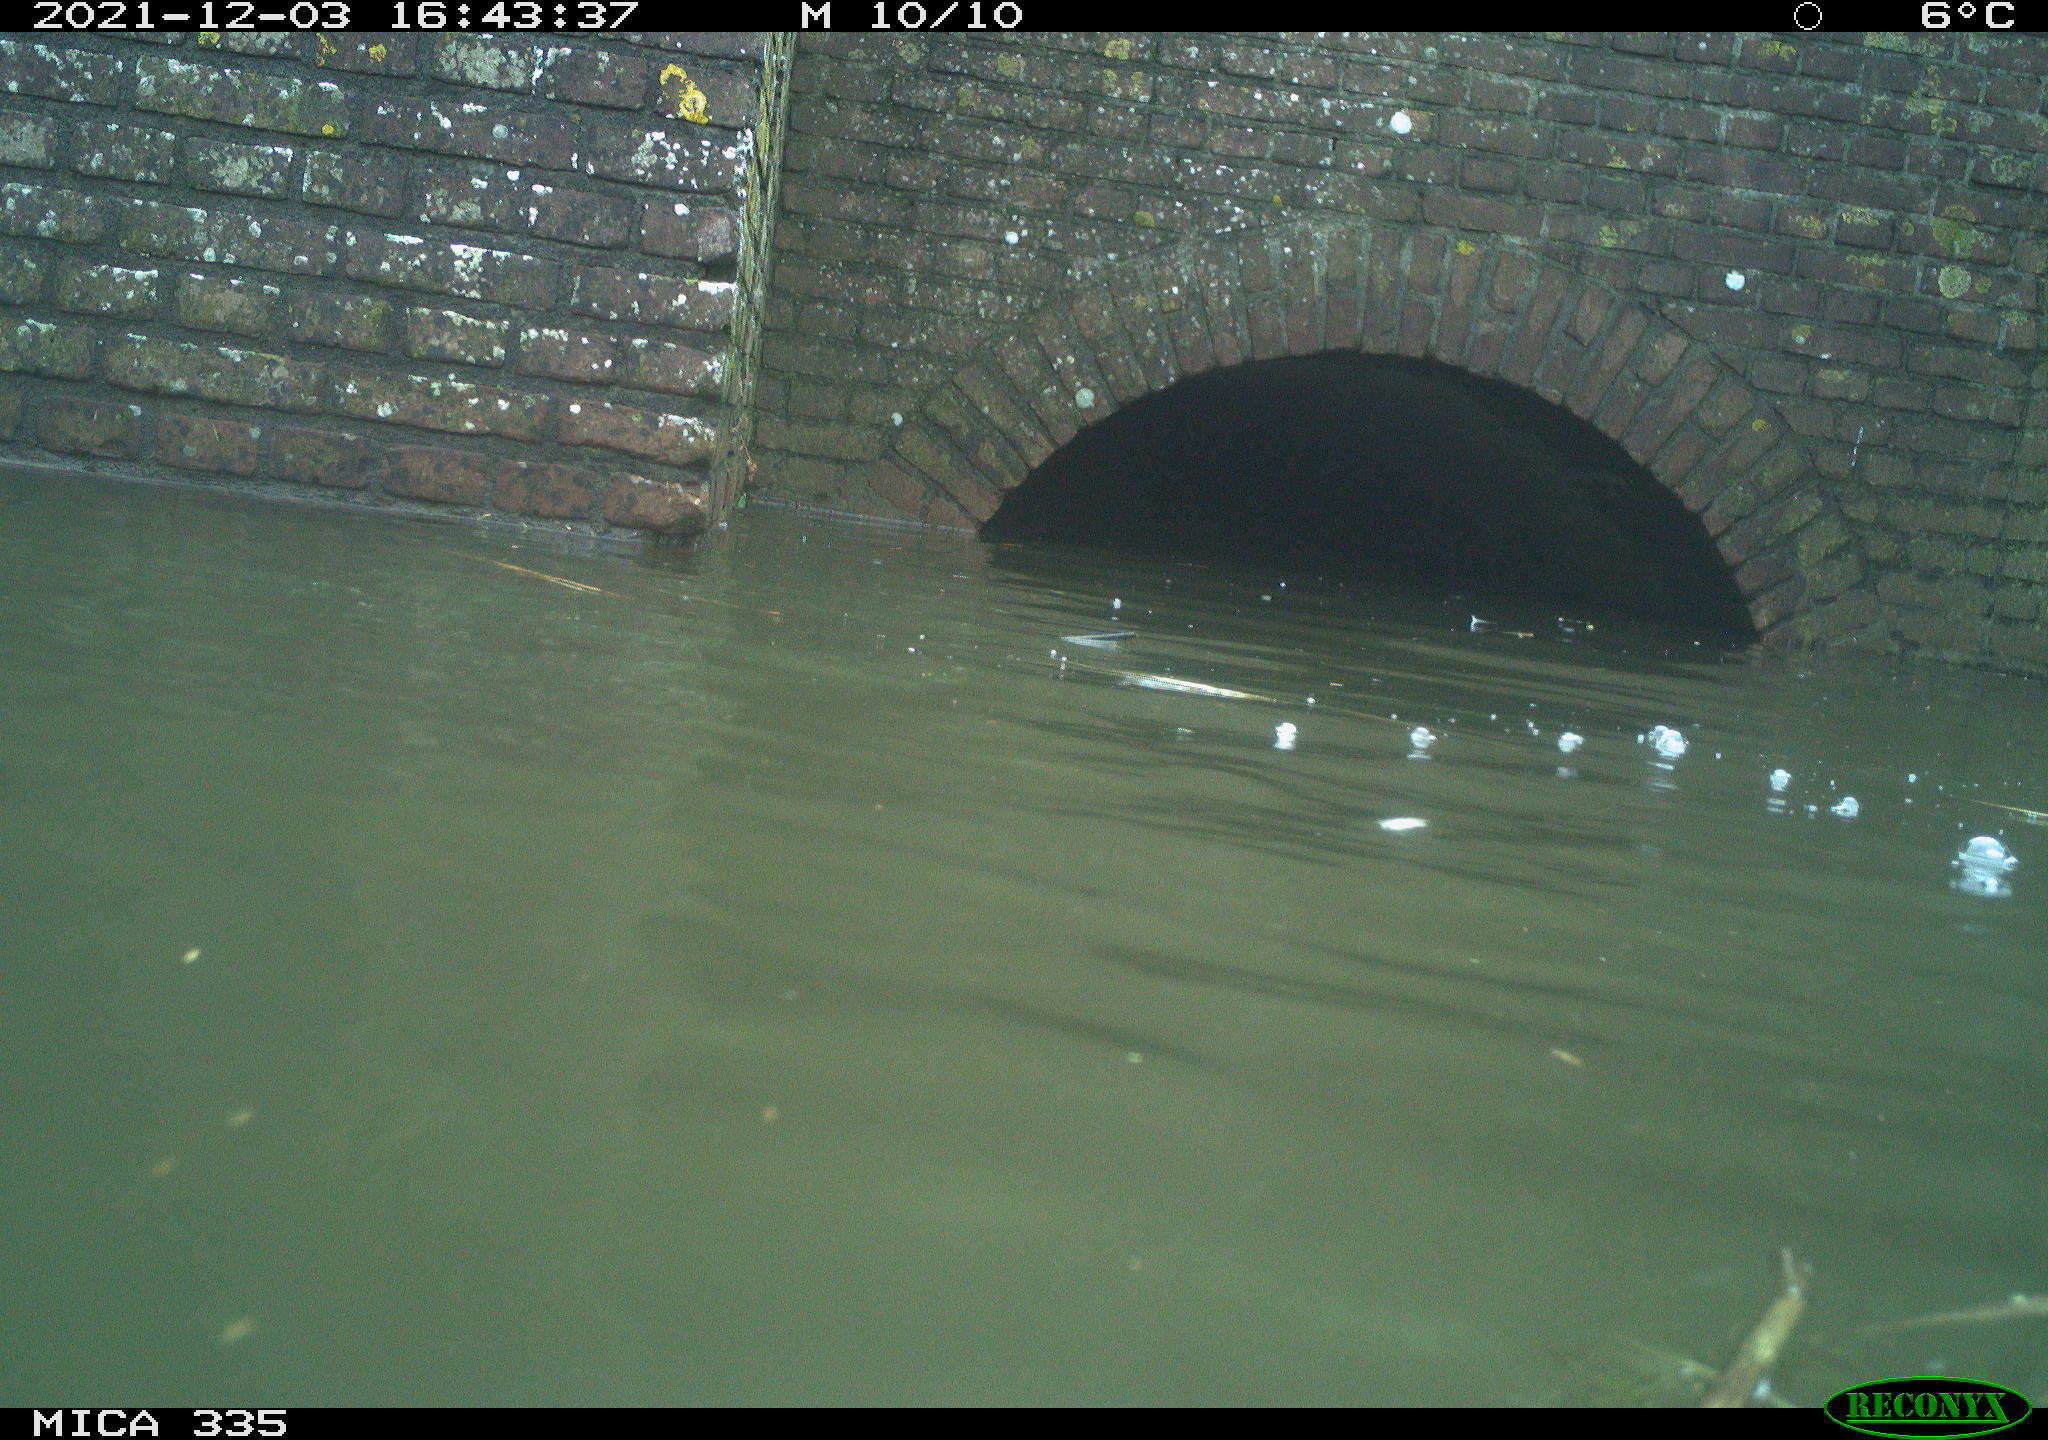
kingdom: Animalia
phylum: Chordata
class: Aves
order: Podicipediformes
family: Podicipedidae
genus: Podiceps
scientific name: Podiceps cristatus
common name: Great crested grebe
